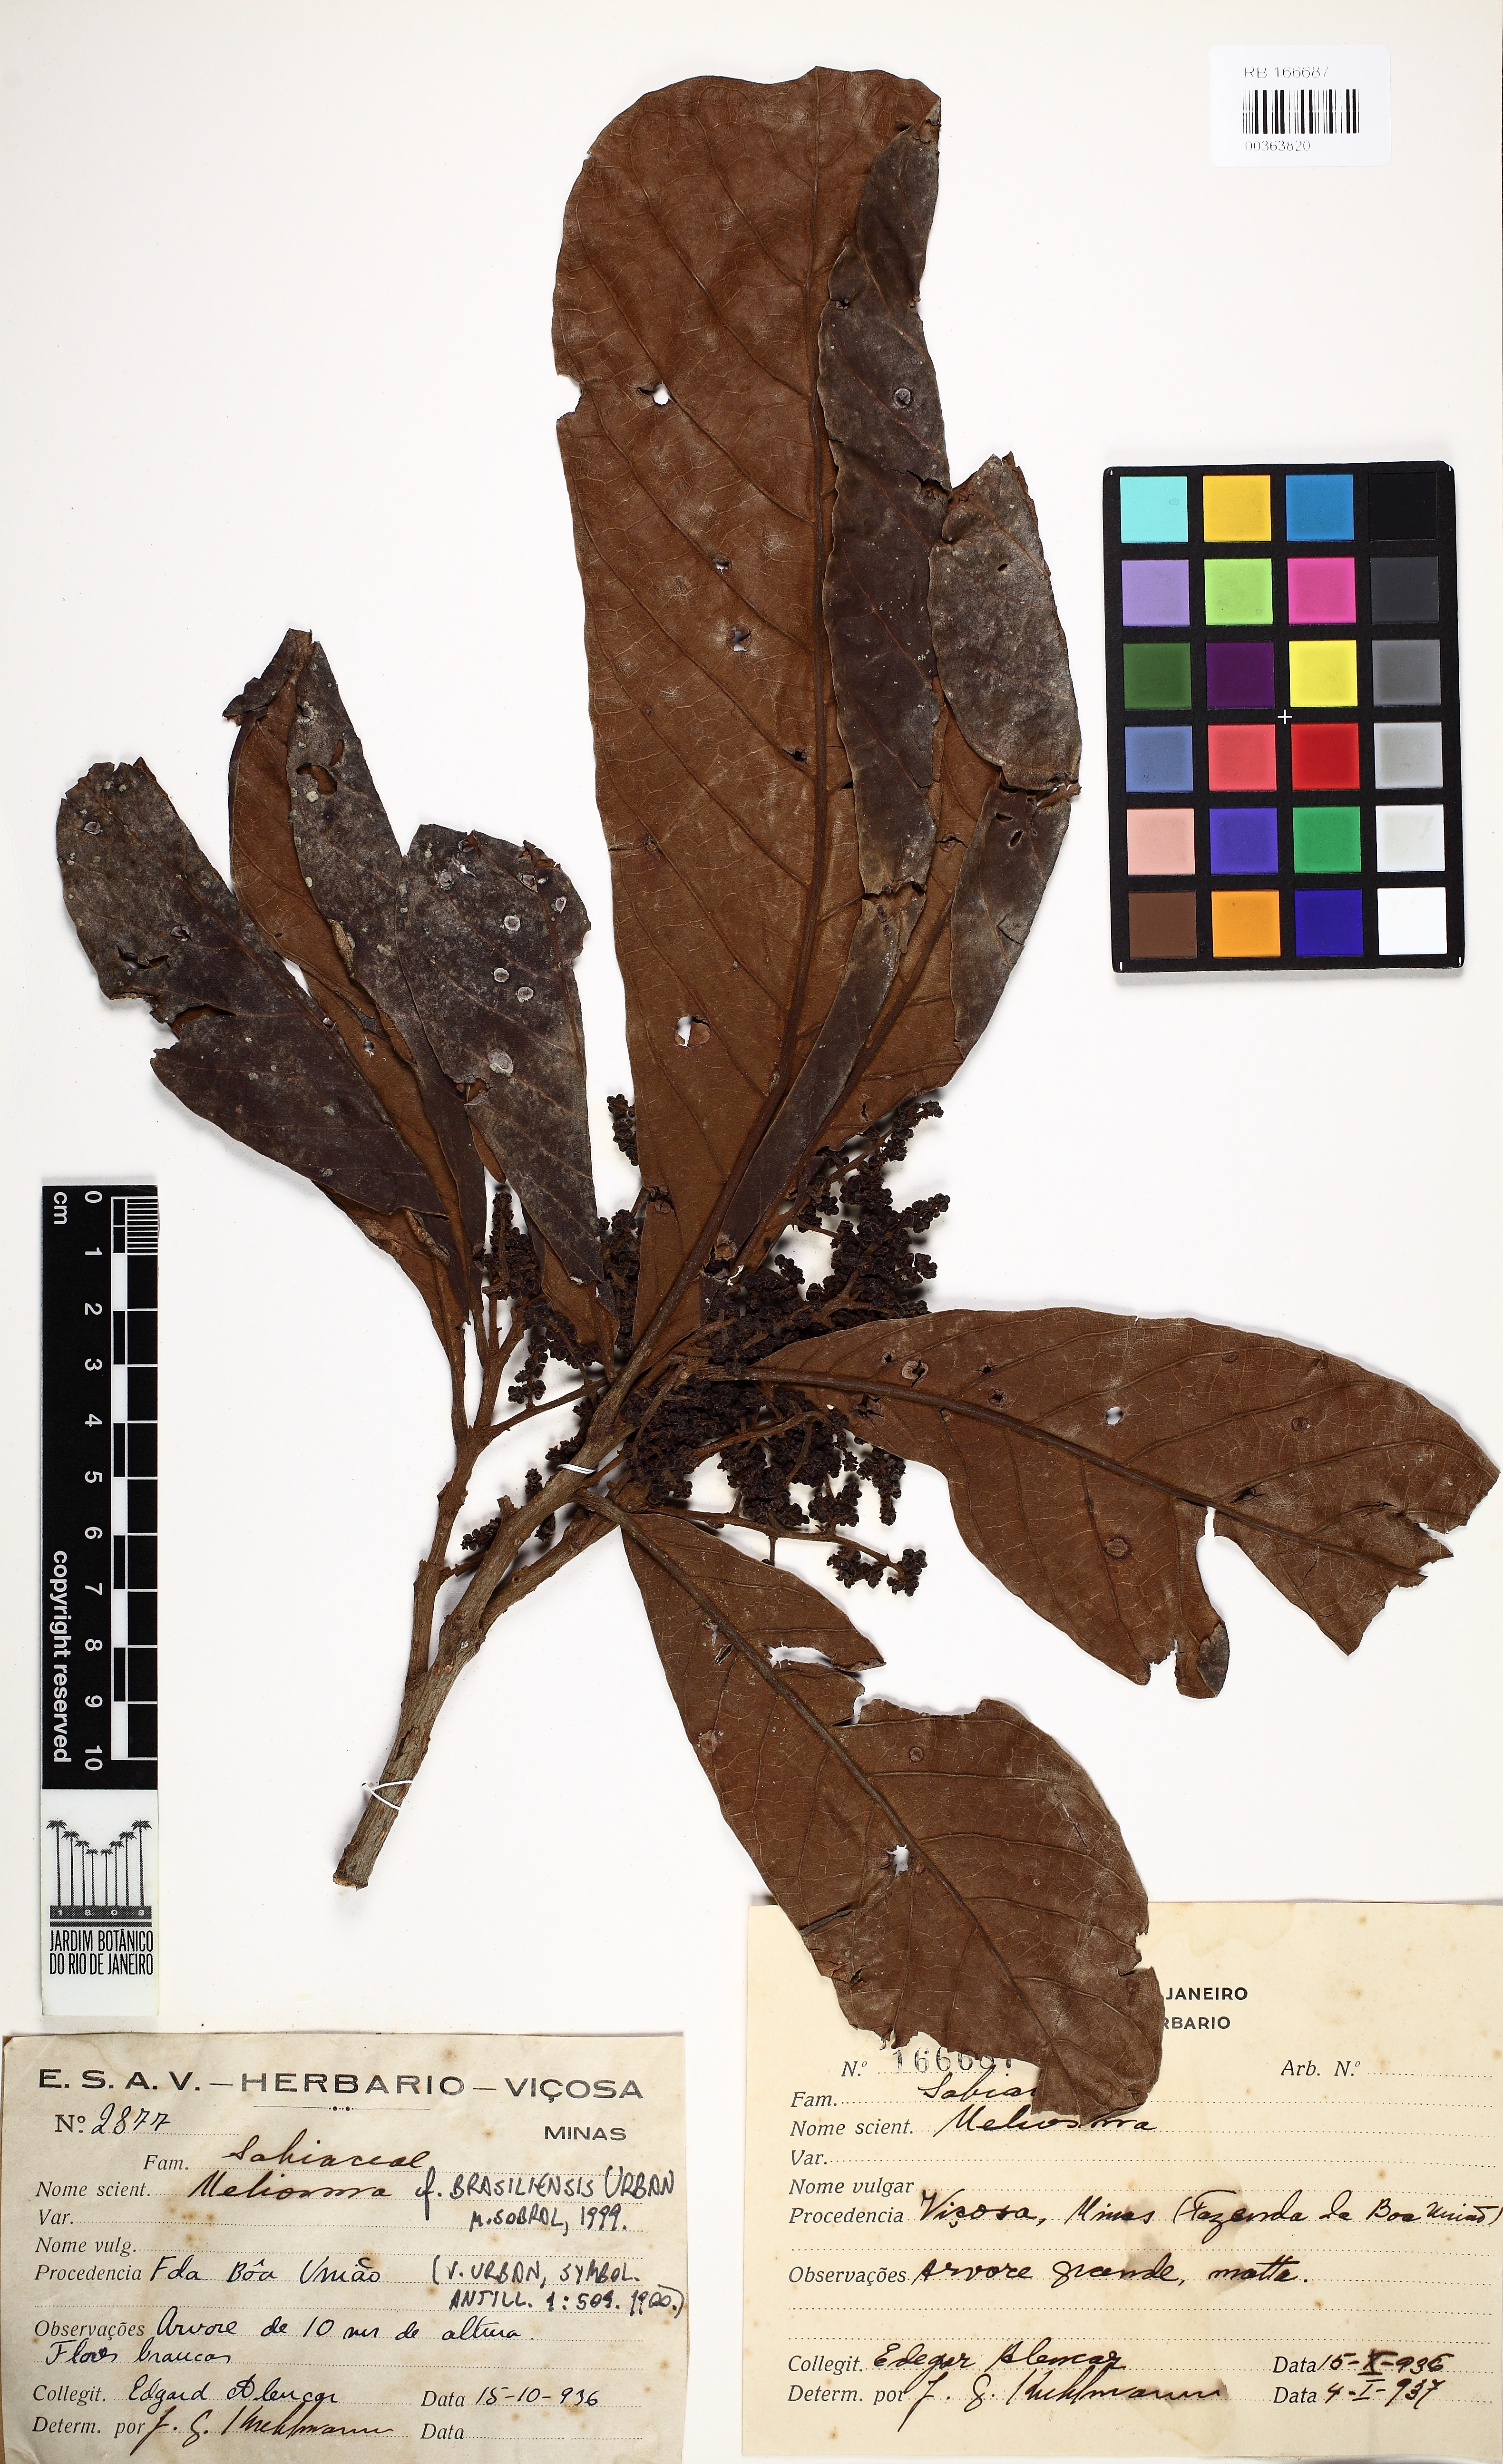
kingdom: Plantae
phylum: Tracheophyta
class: Magnoliopsida
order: Proteales
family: Sabiaceae
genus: Meliosma
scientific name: Meliosma sellowii
